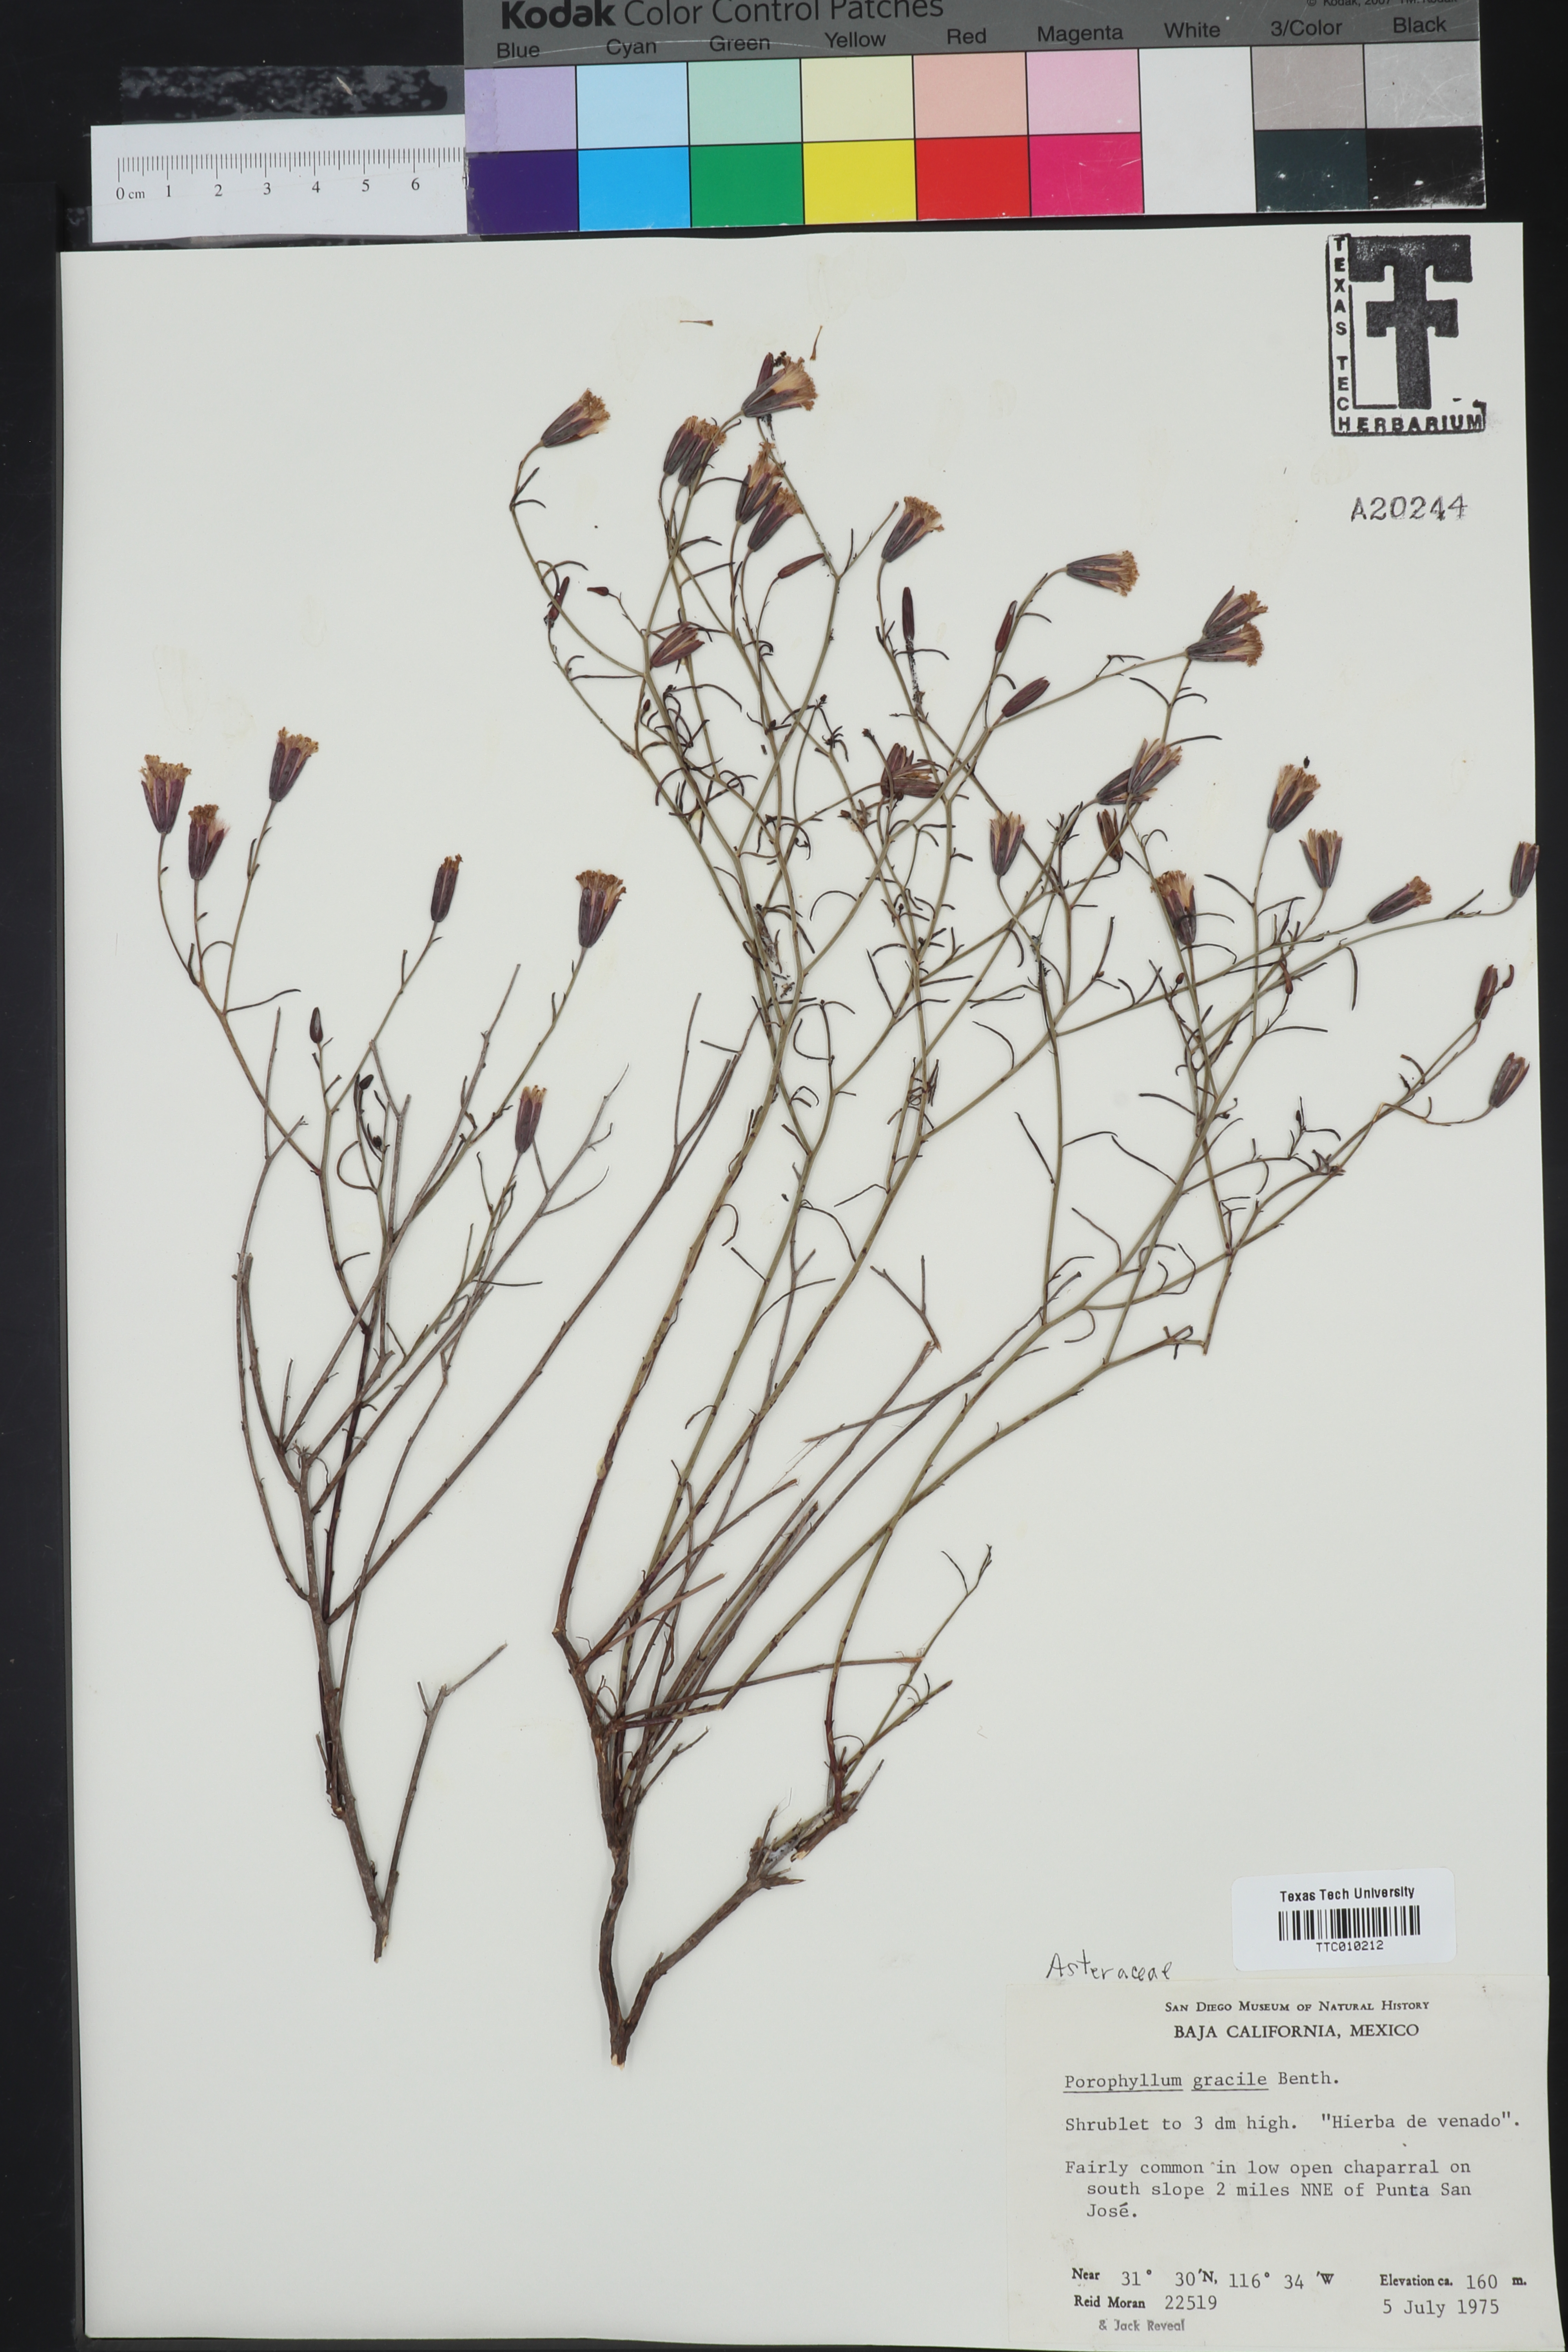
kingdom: Plantae
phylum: Tracheophyta
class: Magnoliopsida
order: Asterales
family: Asteraceae
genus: Porophyllum
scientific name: Porophyllum gracile
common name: Odora
